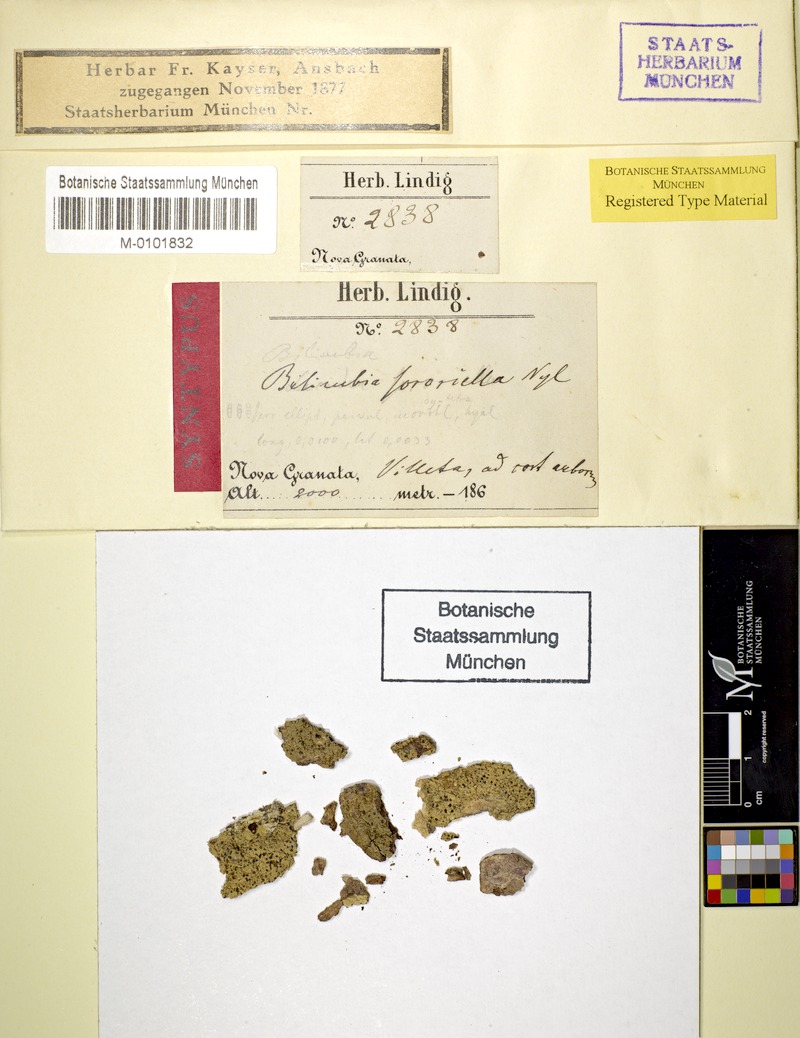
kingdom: Fungi
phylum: Ascomycota
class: Lecanoromycetes
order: Lecanorales
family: Ramalinaceae
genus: Bacidia
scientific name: Bacidia sororiella
